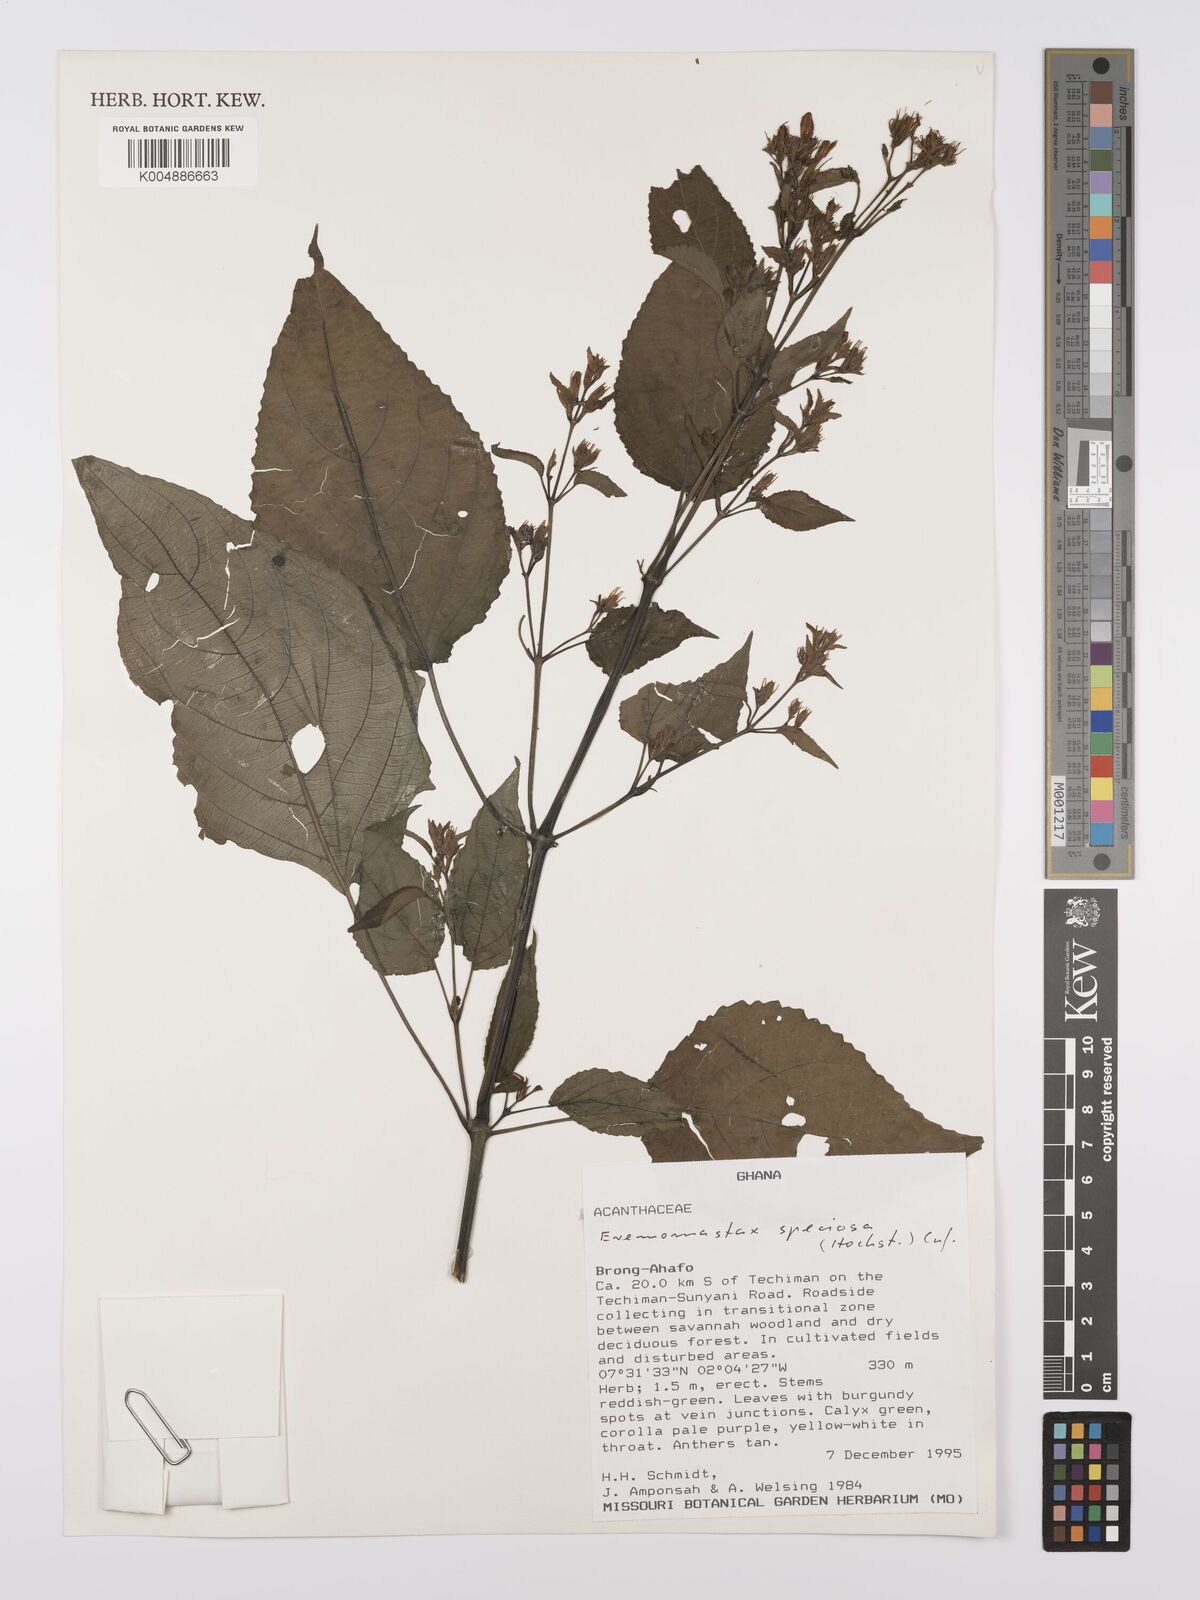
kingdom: Plantae
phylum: Tracheophyta
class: Magnoliopsida
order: Lamiales
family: Acanthaceae
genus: Eremomastax
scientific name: Eremomastax speciosa
